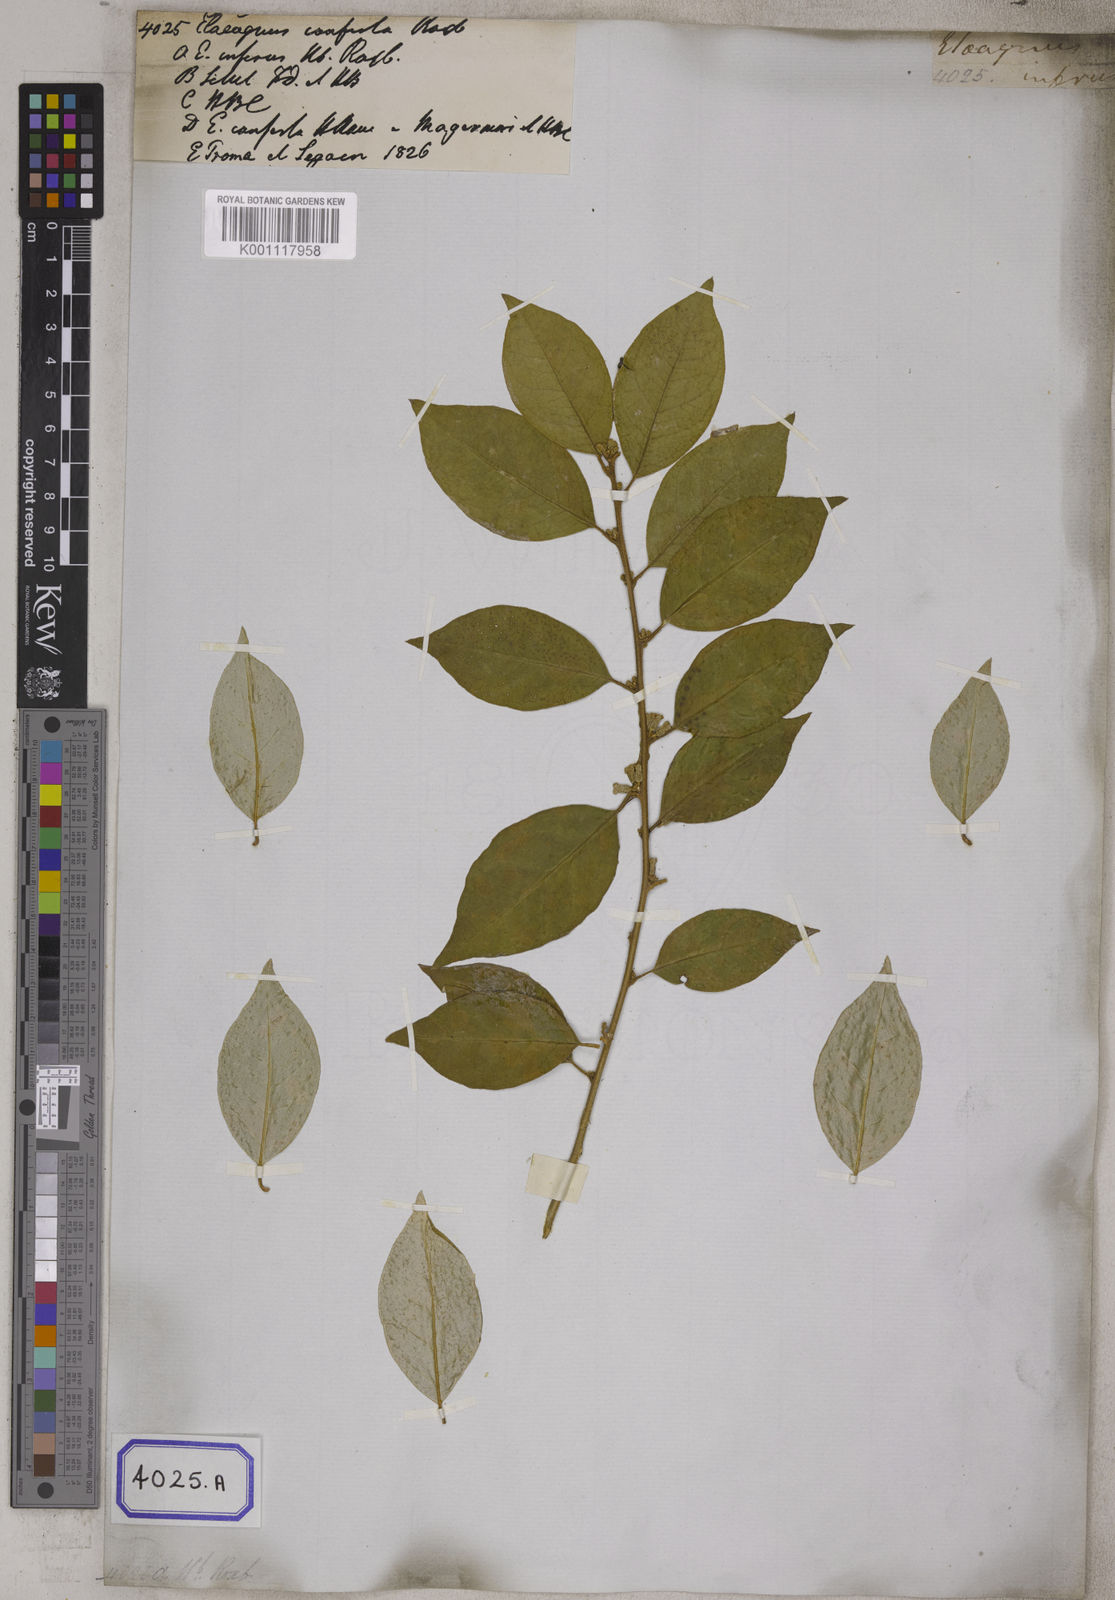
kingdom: Plantae
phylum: Tracheophyta
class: Magnoliopsida
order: Rosales
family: Elaeagnaceae
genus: Elaeagnus
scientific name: Elaeagnus conferta
